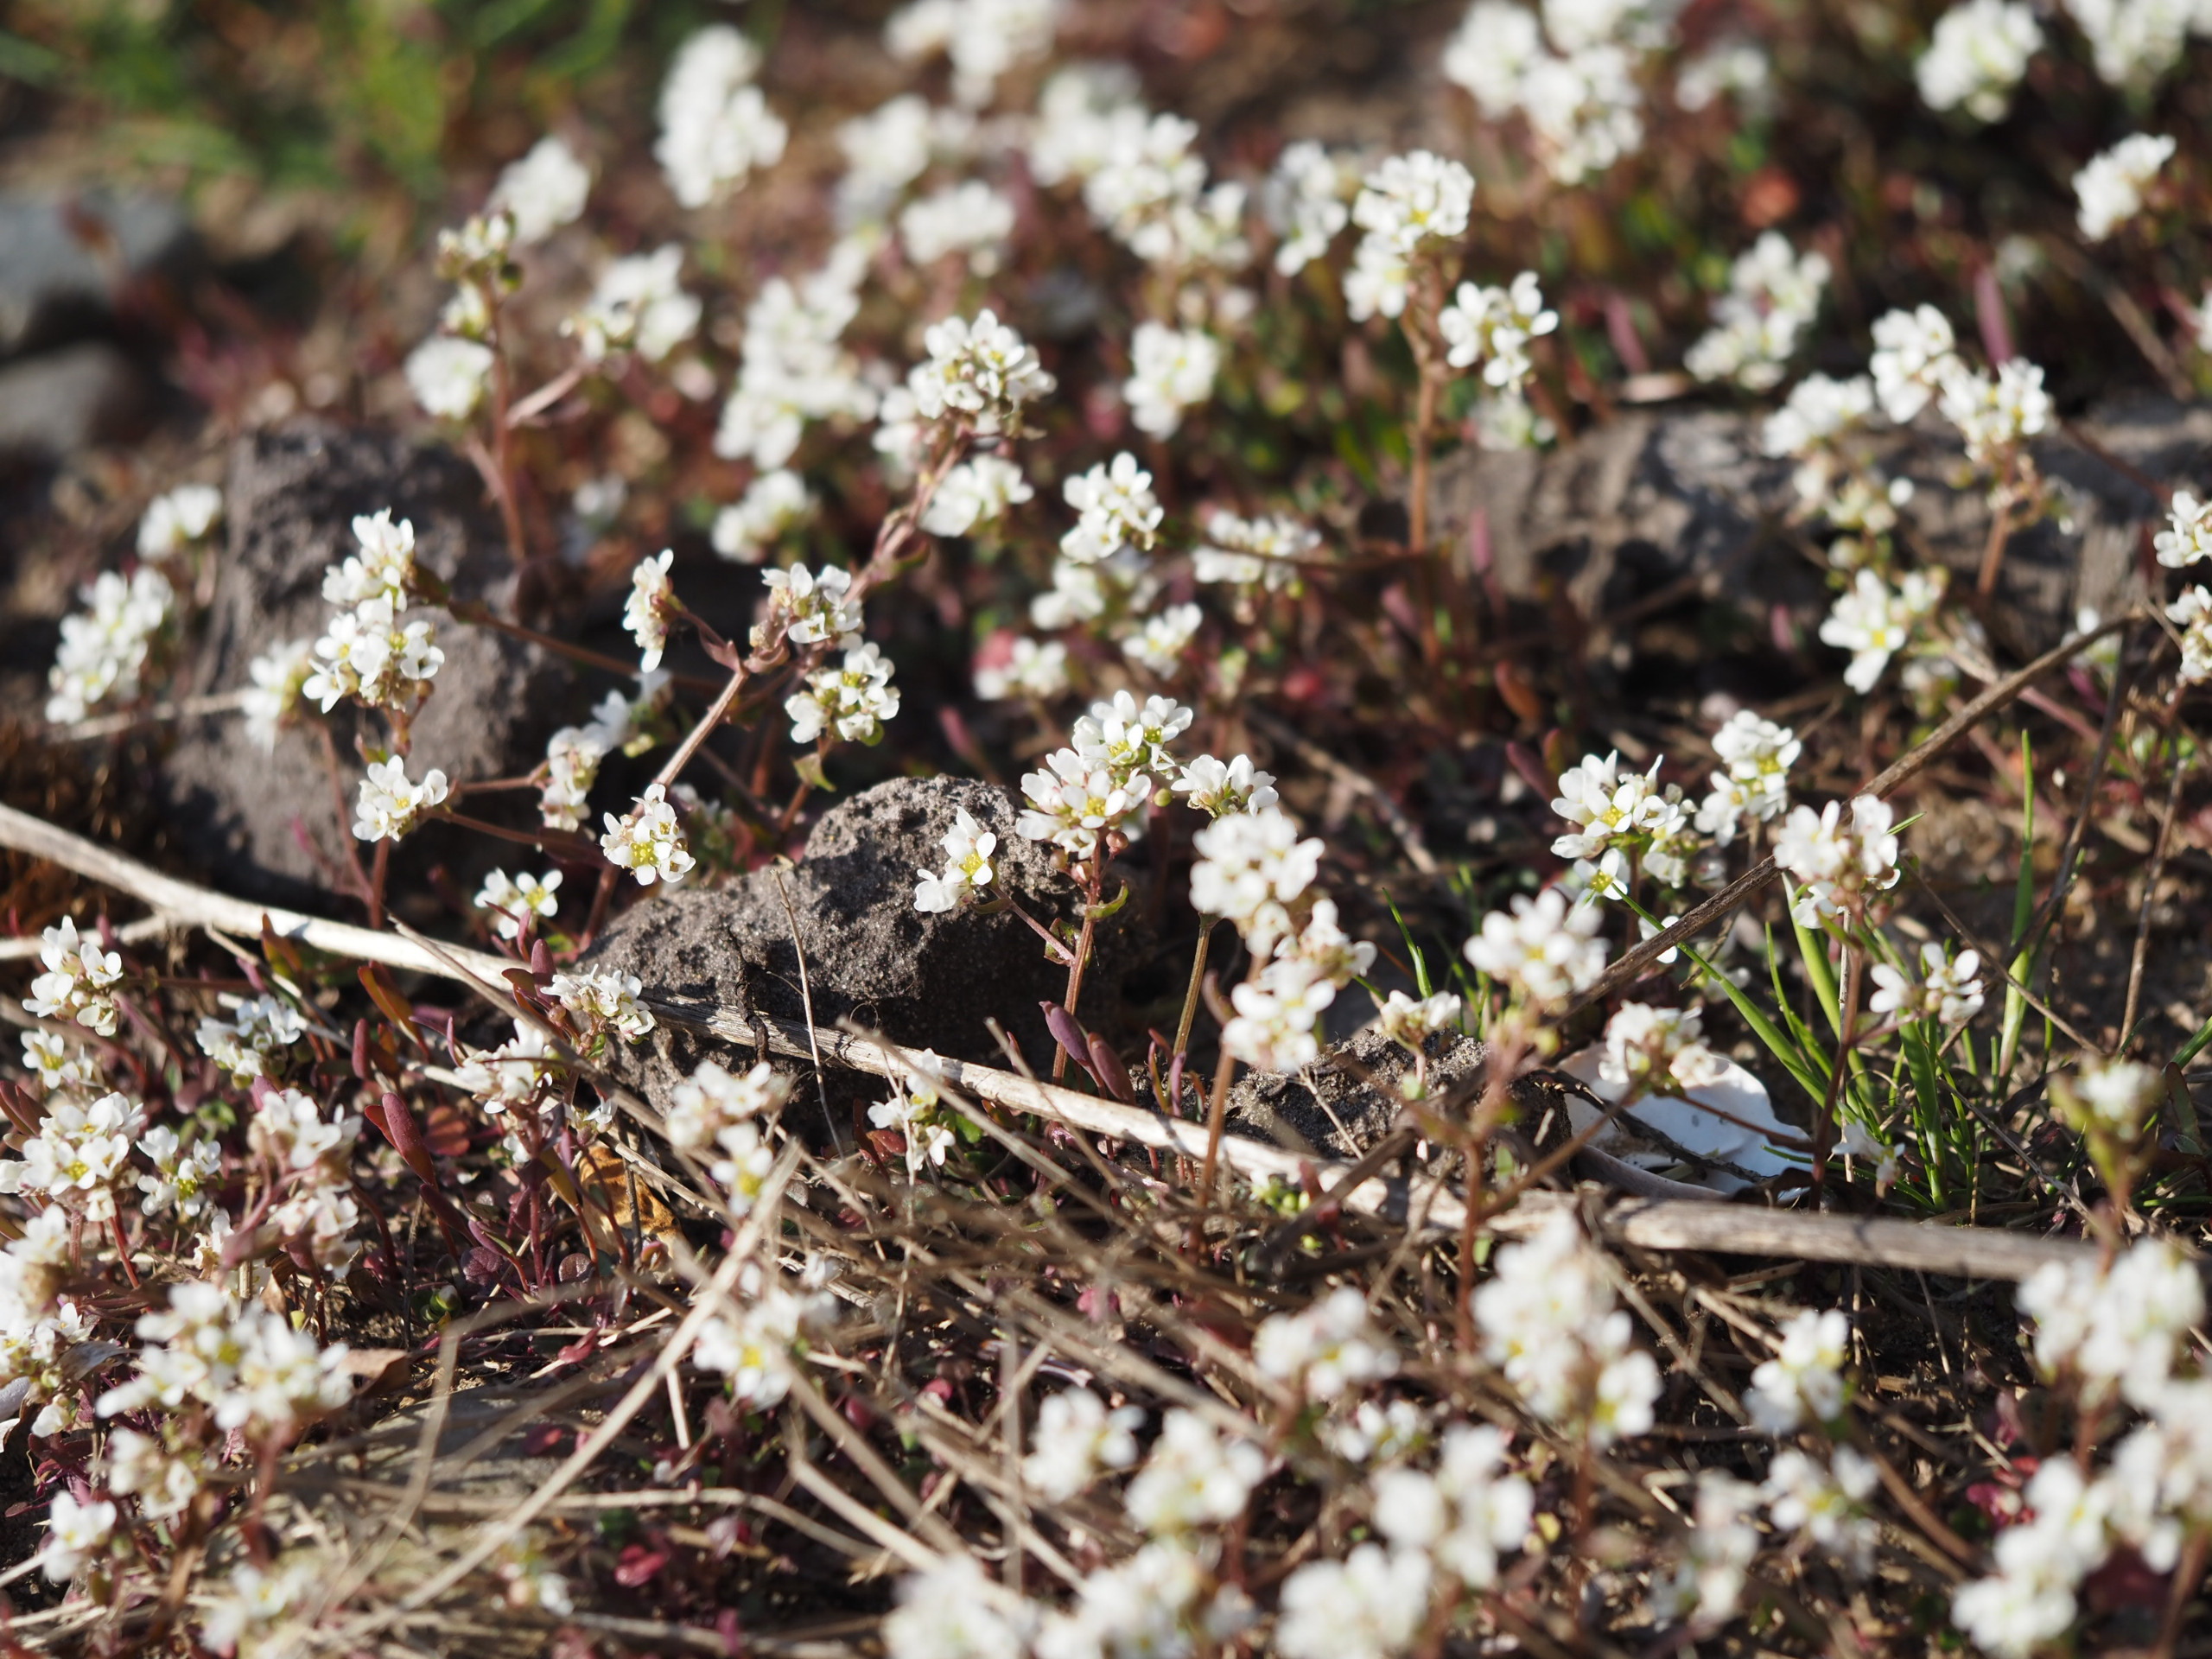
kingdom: Plantae
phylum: Tracheophyta
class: Magnoliopsida
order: Brassicales
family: Brassicaceae
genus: Cochlearia
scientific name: Cochlearia officinalis
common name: Læge-kokleare
